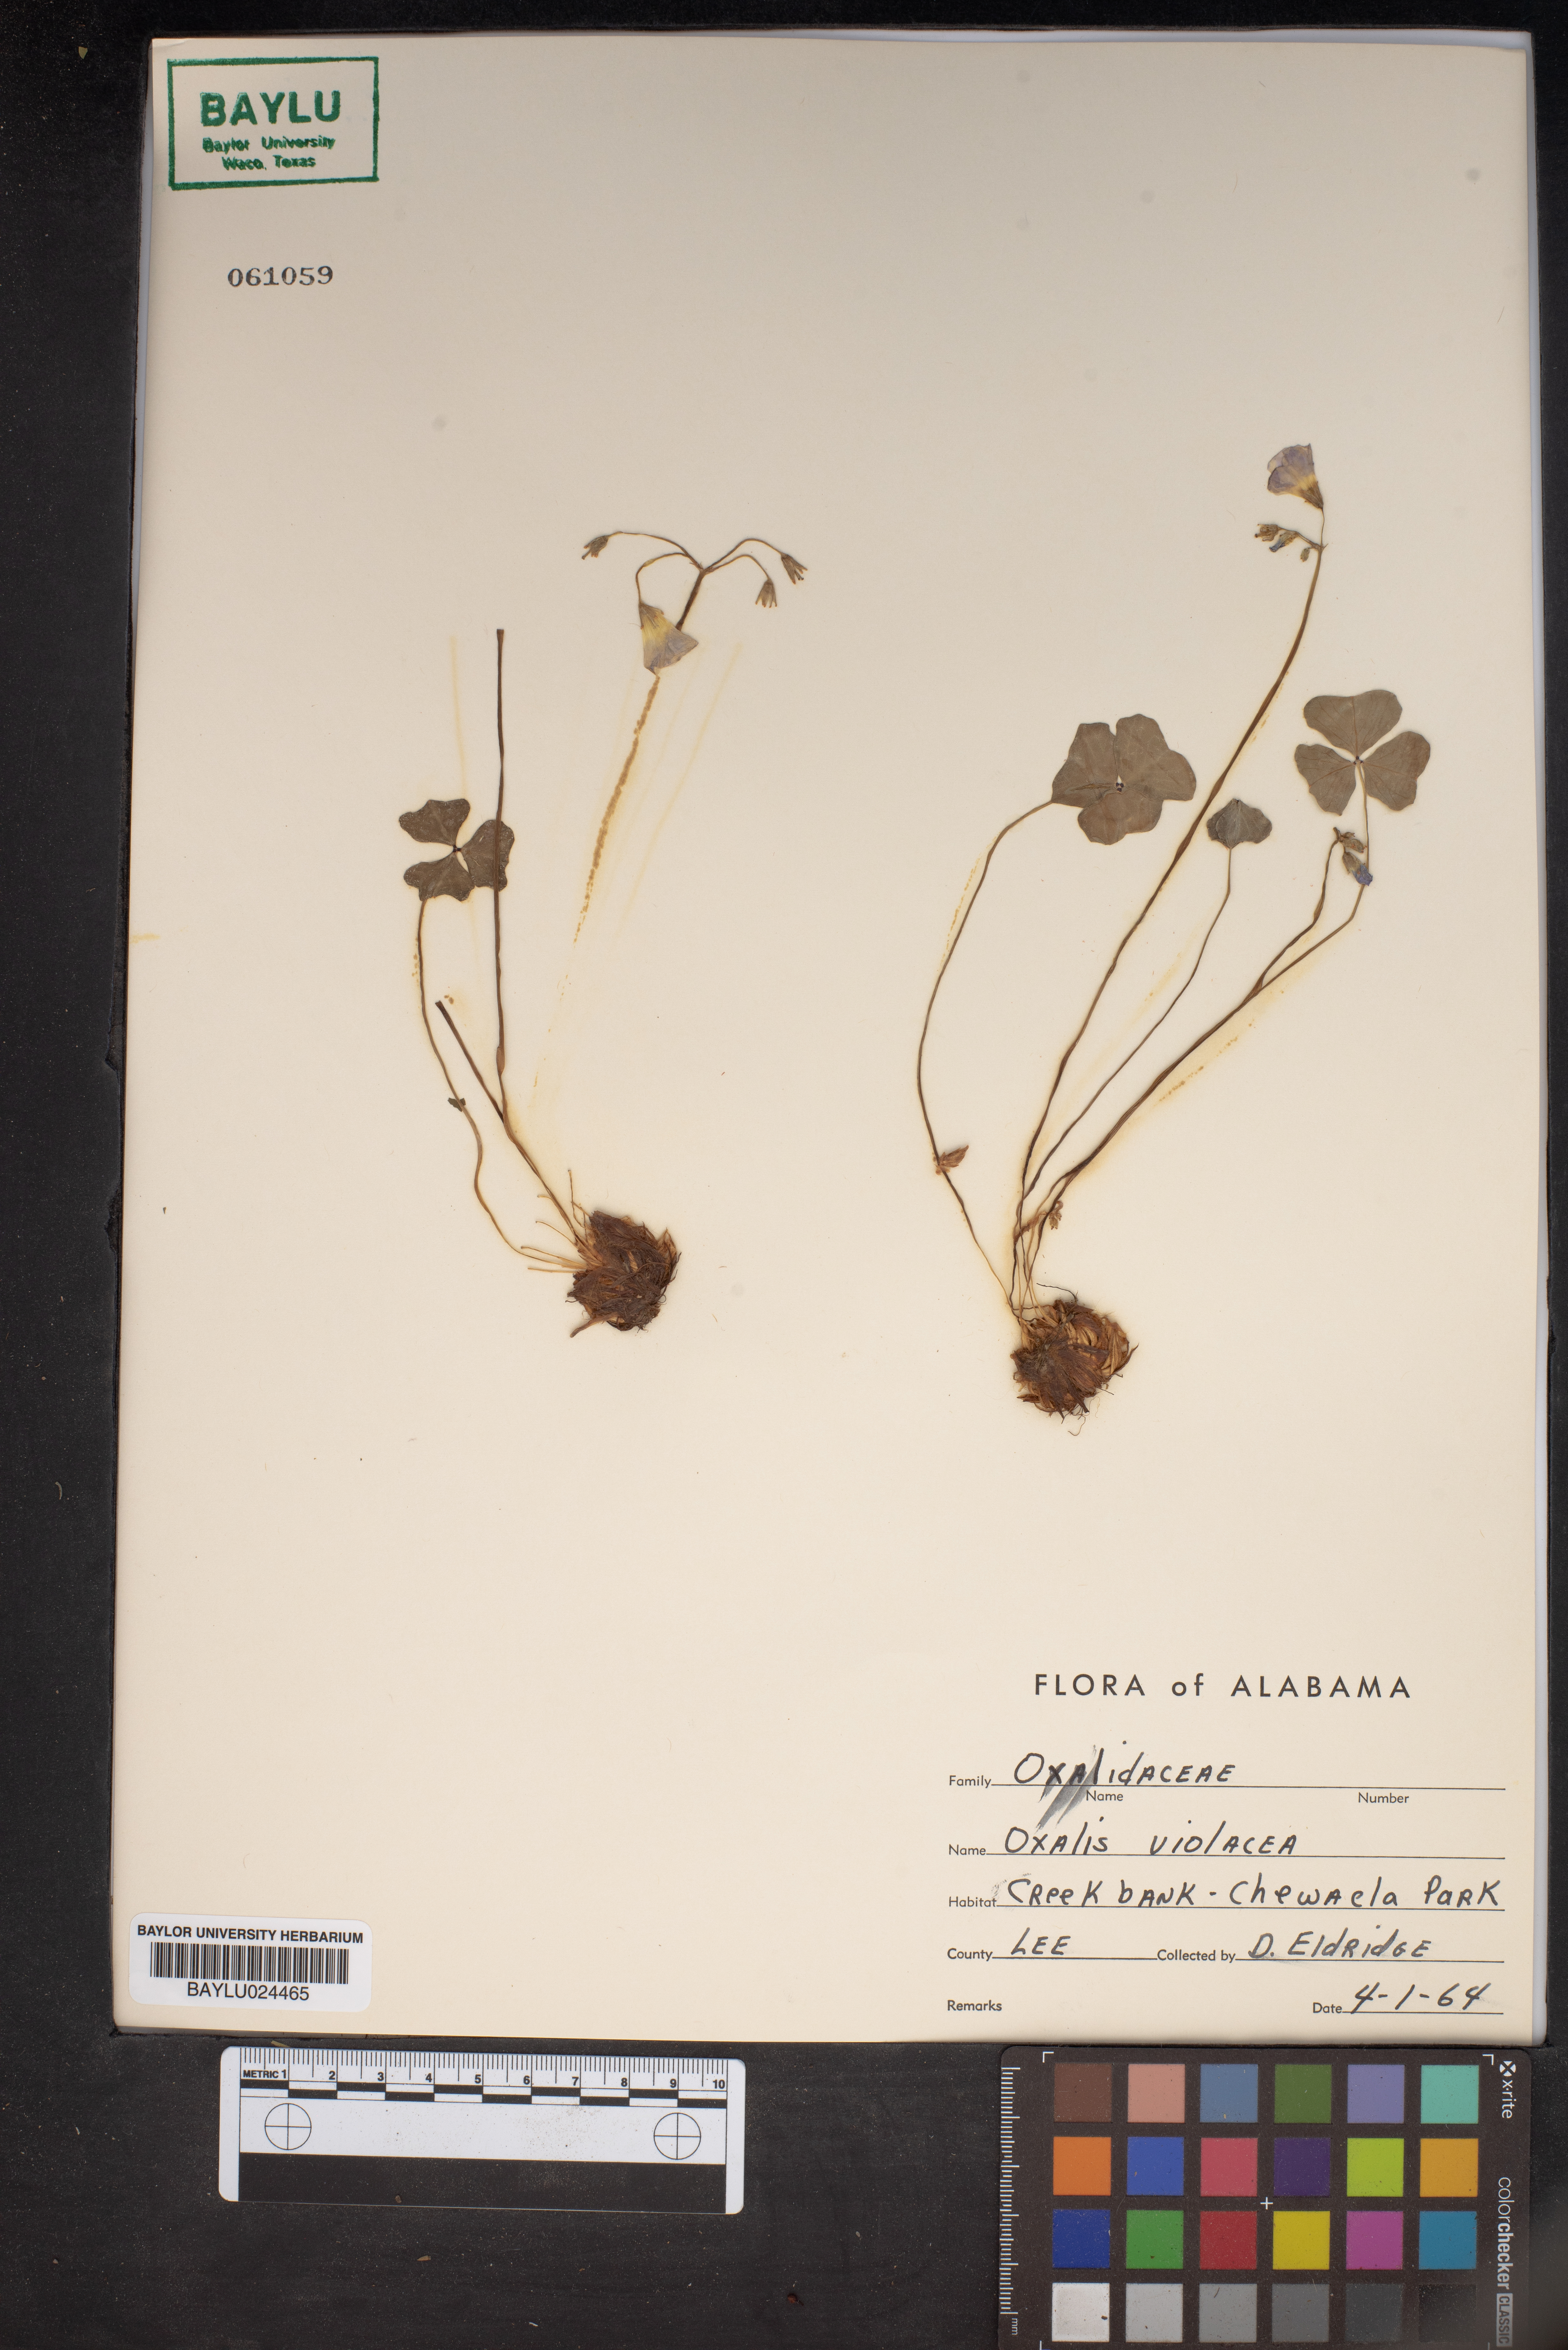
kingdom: Plantae
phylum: Tracheophyta
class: Magnoliopsida
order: Oxalidales
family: Oxalidaceae
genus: Oxalis
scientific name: Oxalis violacea
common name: Violet wood-sorrel
